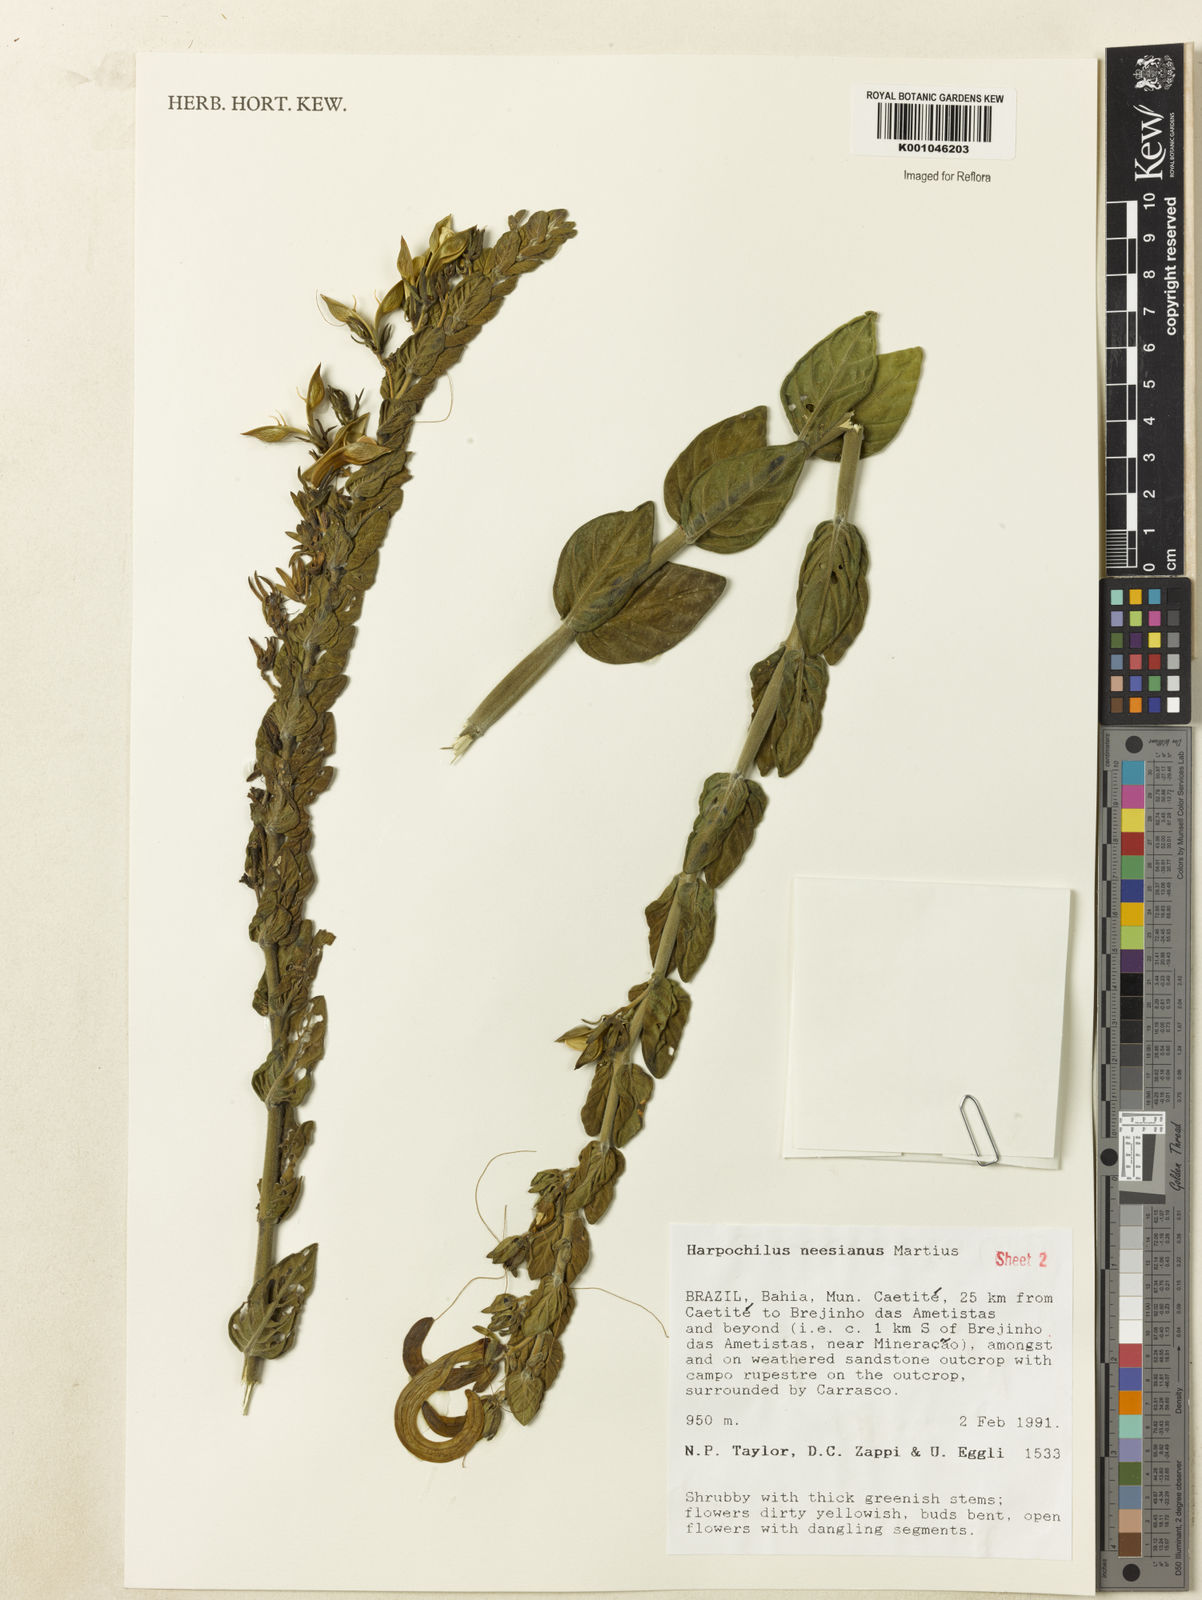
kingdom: Plantae
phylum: Tracheophyta
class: Magnoliopsida
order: Lamiales
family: Acanthaceae
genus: Harpochilus
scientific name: Harpochilus neesianus
